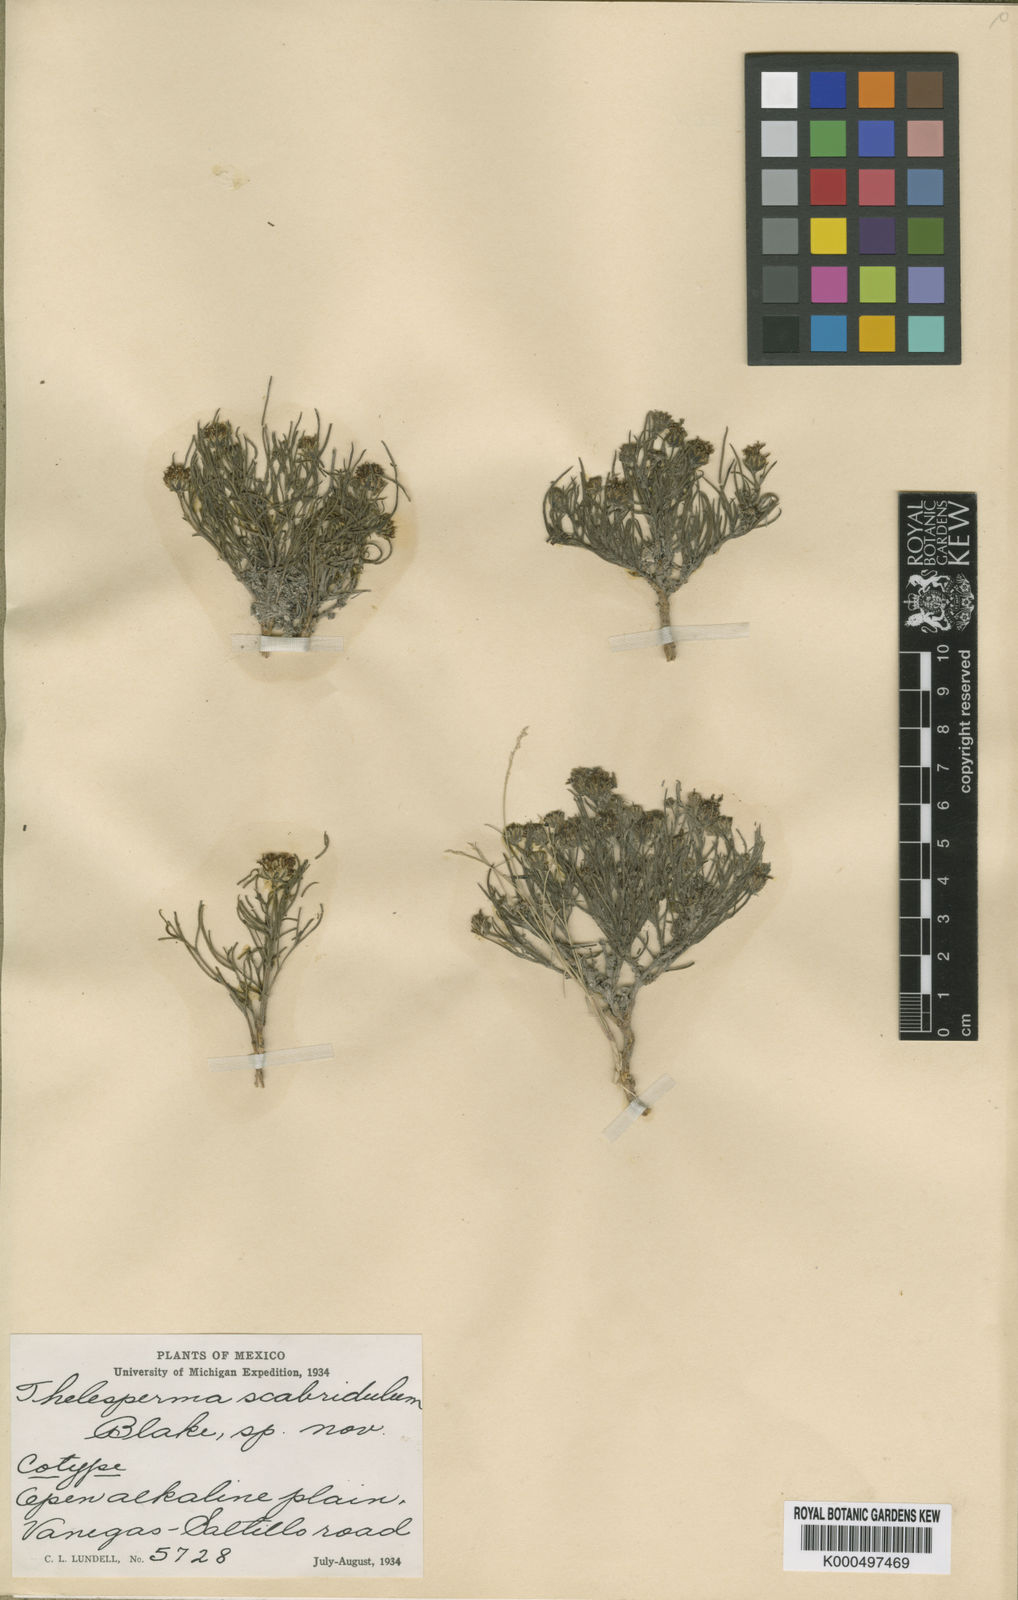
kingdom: Plantae
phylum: Tracheophyta
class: Magnoliopsida
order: Asterales
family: Asteraceae
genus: Thelesperma
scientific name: Thelesperma scabridulum
